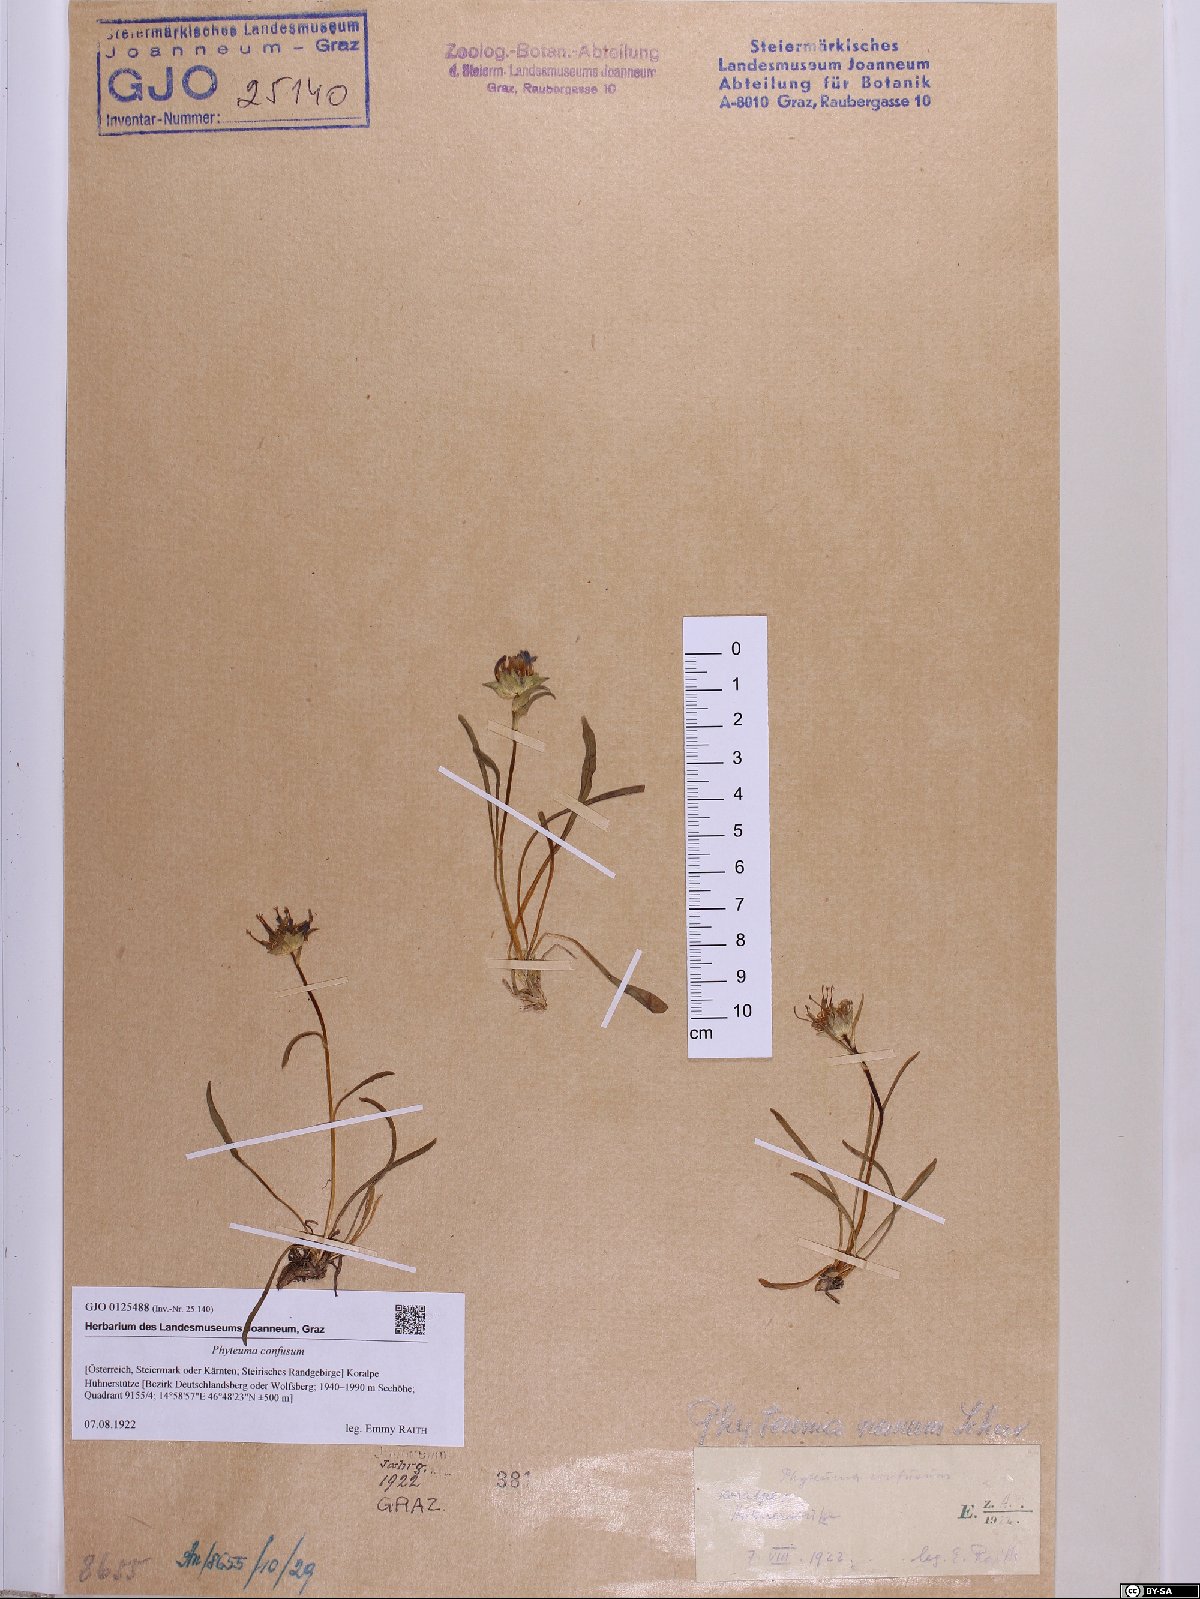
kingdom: Plantae
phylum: Tracheophyta
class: Magnoliopsida
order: Asterales
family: Campanulaceae
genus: Phyteuma
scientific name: Phyteuma confusum
